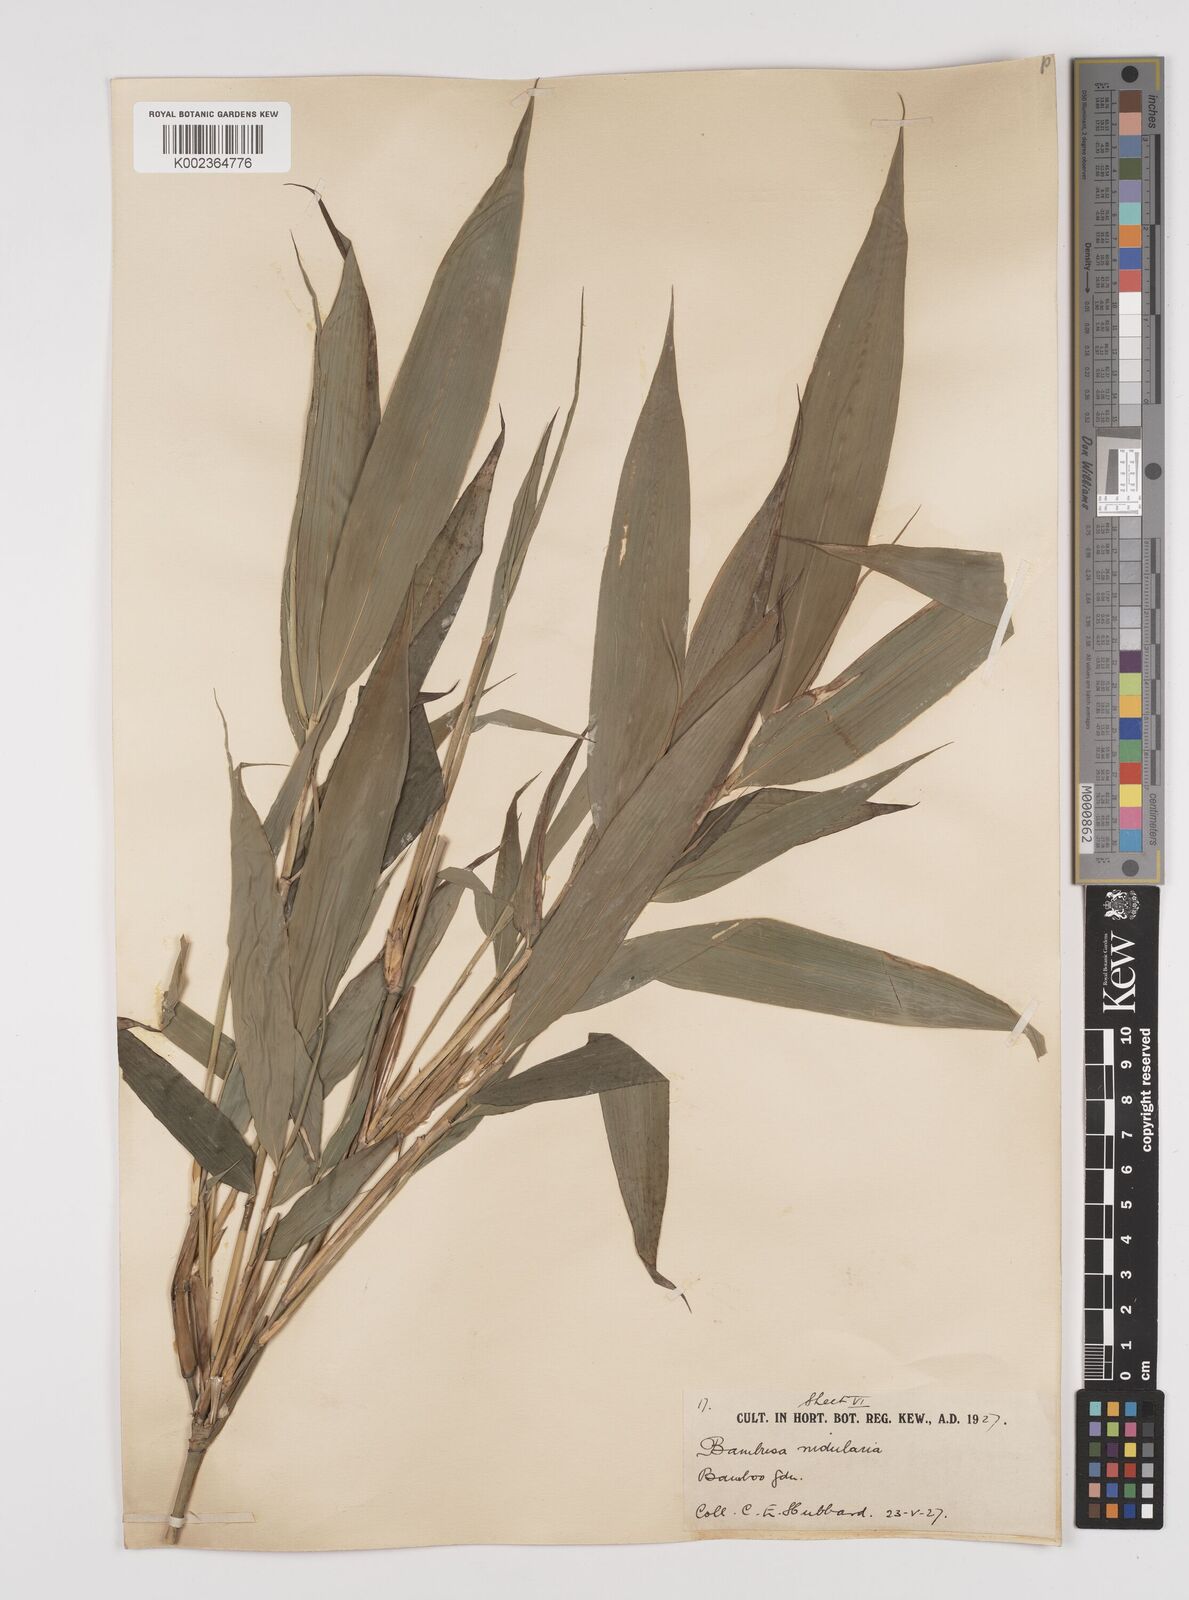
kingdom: Plantae
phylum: Tracheophyta
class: Liliopsida
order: Poales
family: Poaceae
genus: Semiarundinaria
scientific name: Semiarundinaria fastuosa
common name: Narihira bamboo
